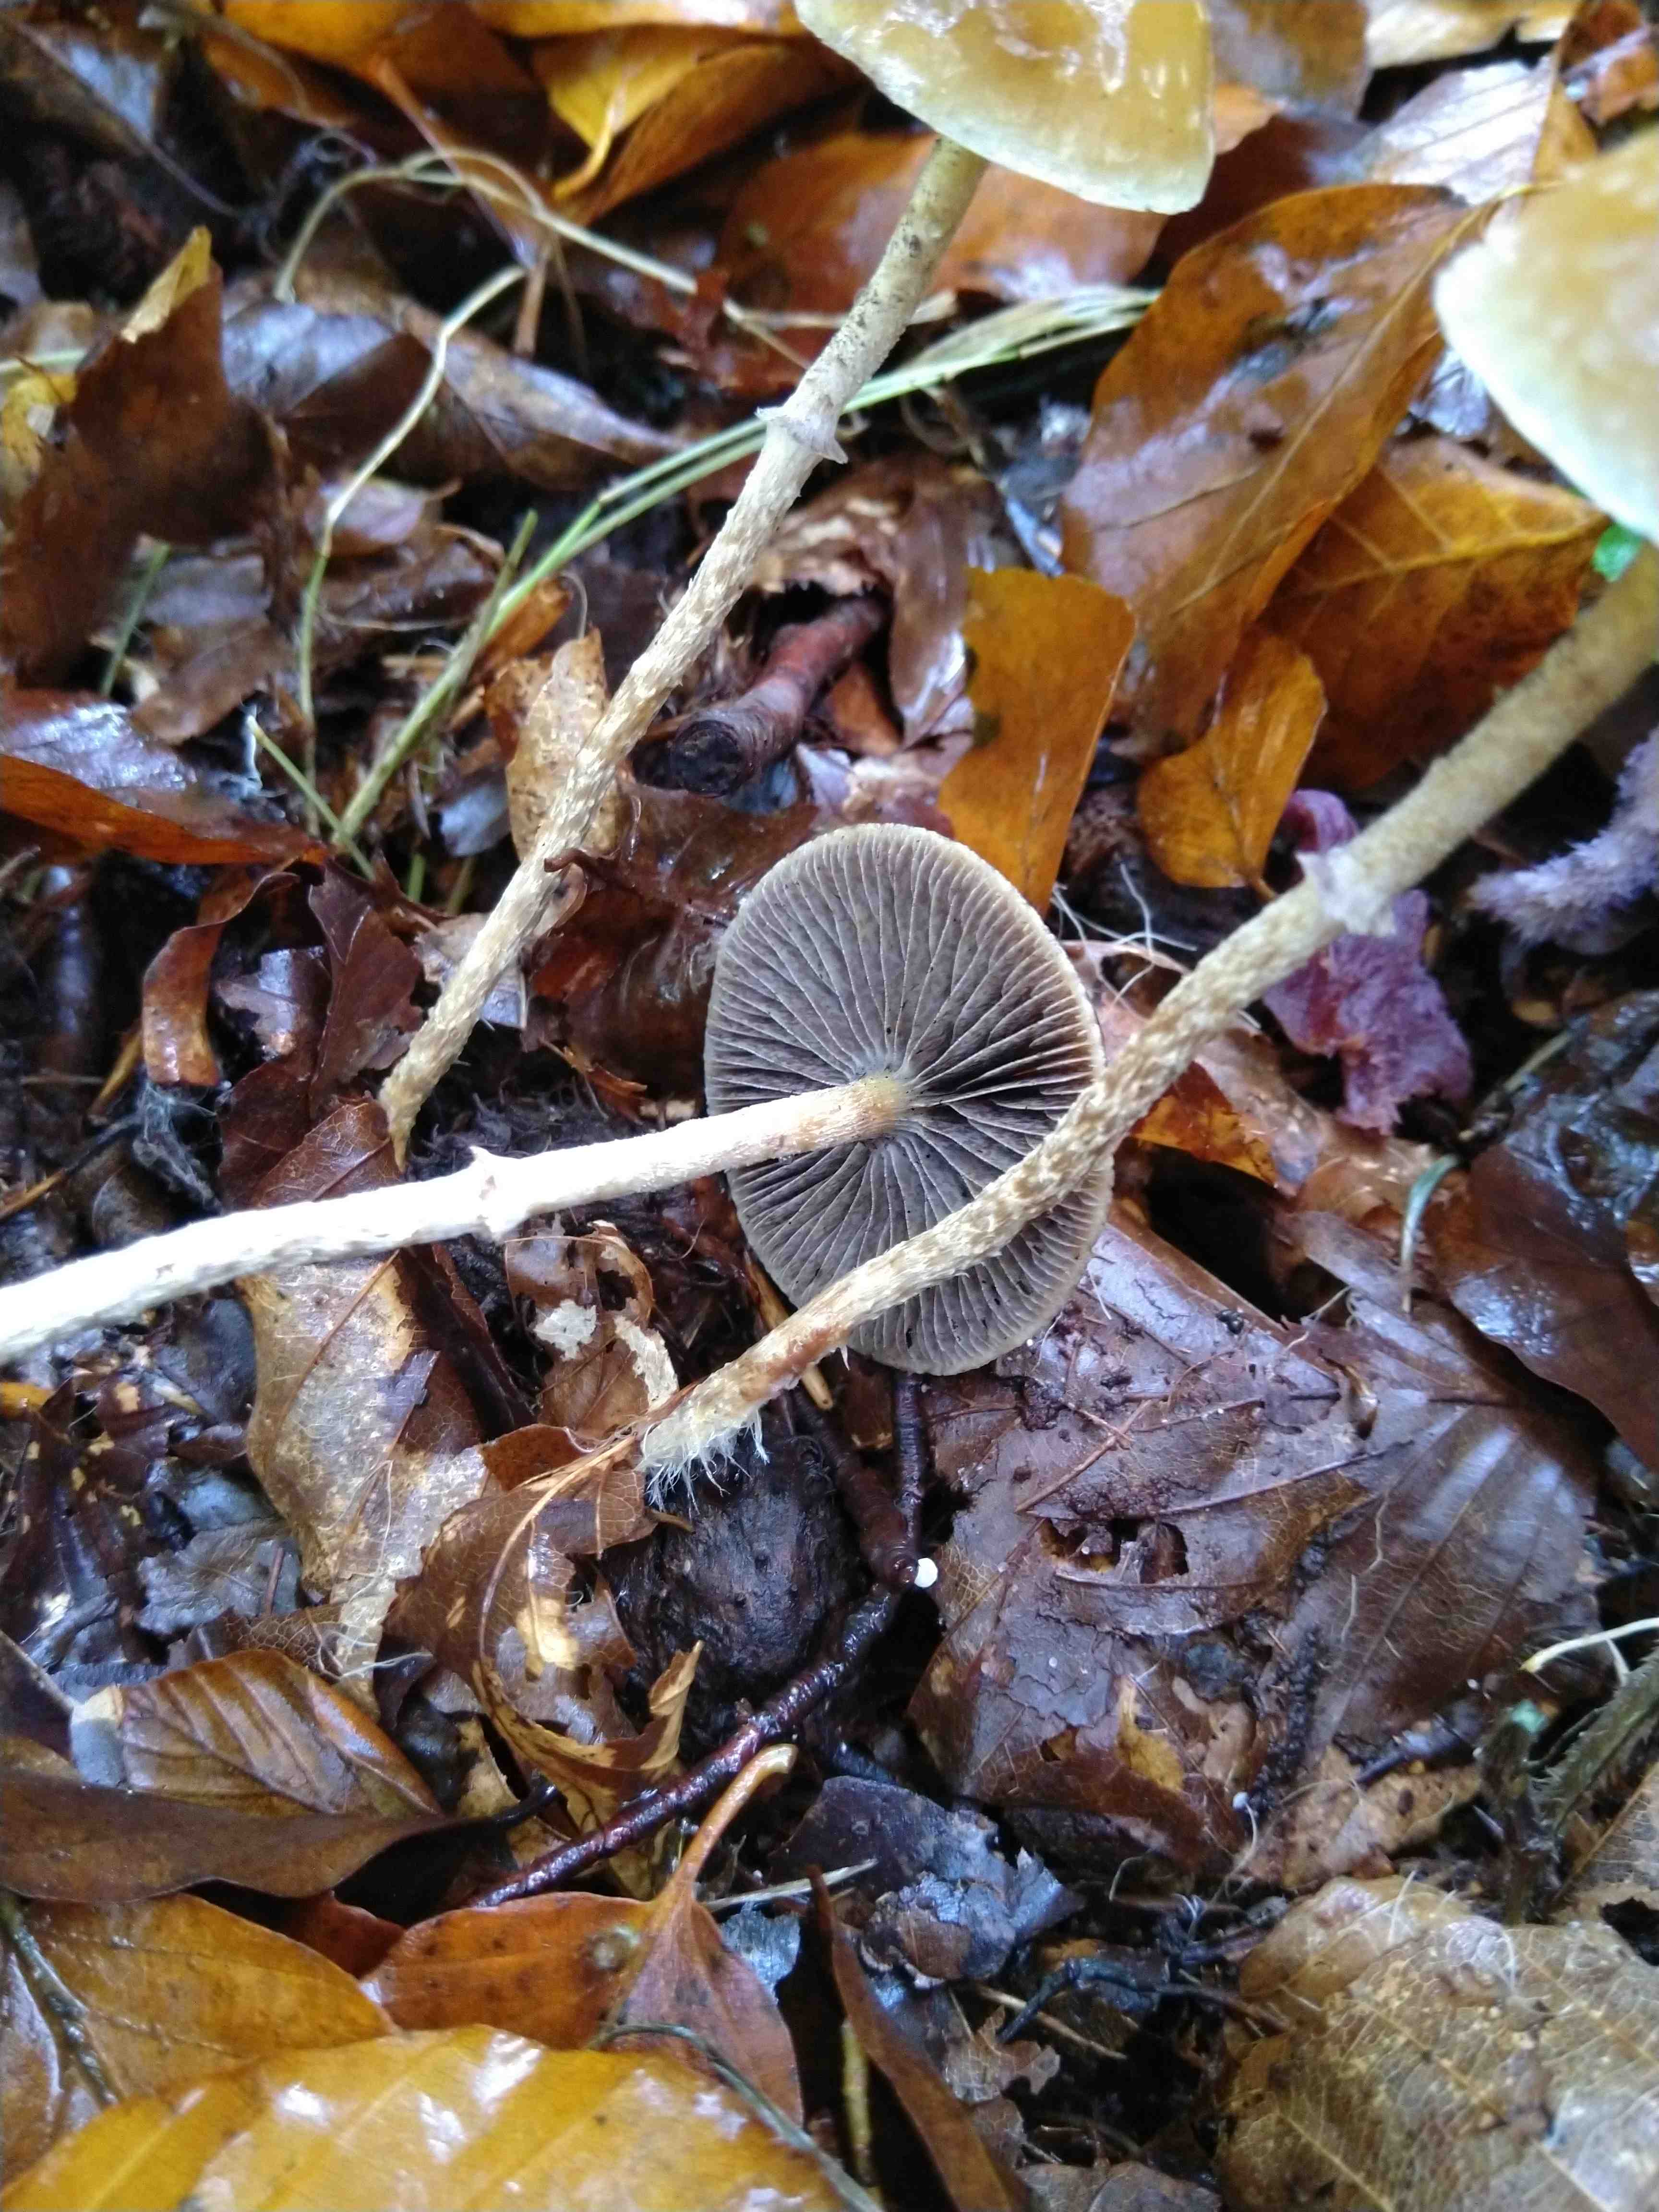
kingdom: Fungi
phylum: Basidiomycota
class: Agaricomycetes
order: Agaricales
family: Strophariaceae
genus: Leratiomyces
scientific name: Leratiomyces squamosus
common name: skællet bredblad
